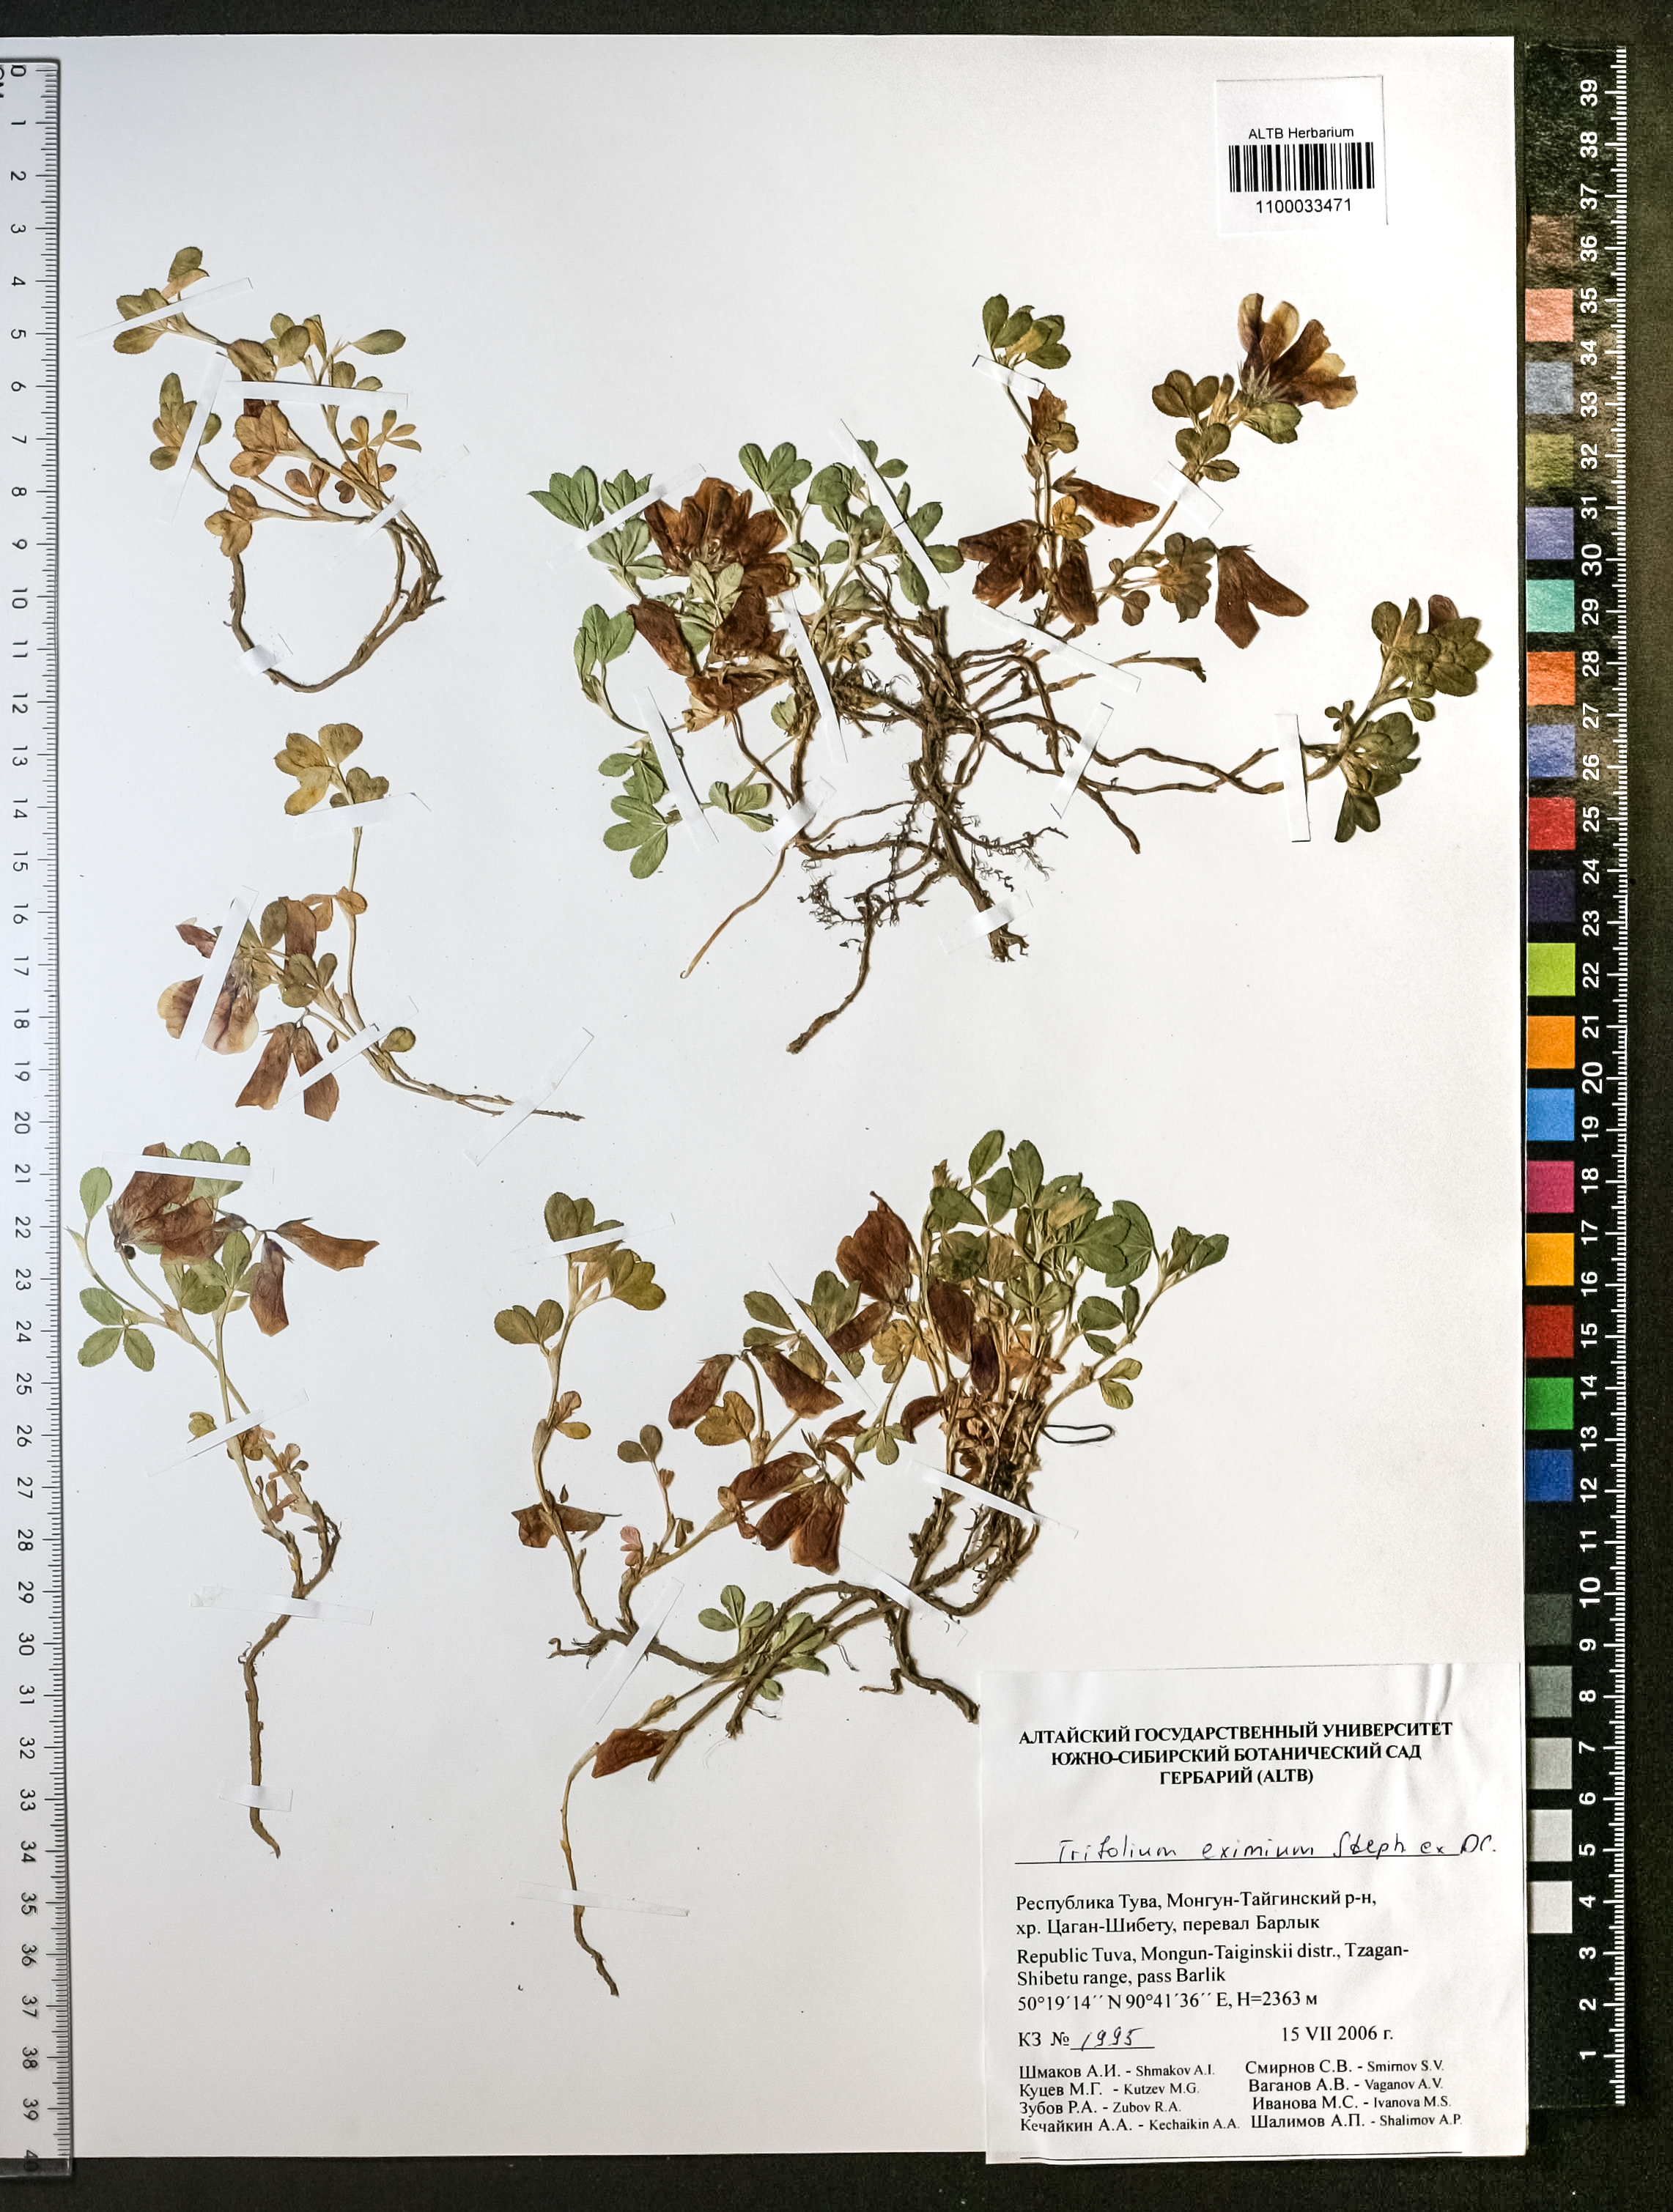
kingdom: Plantae
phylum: Tracheophyta
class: Magnoliopsida
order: Fabales
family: Fabaceae
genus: Trifolium
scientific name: Trifolium eximium
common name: Excellent clover
